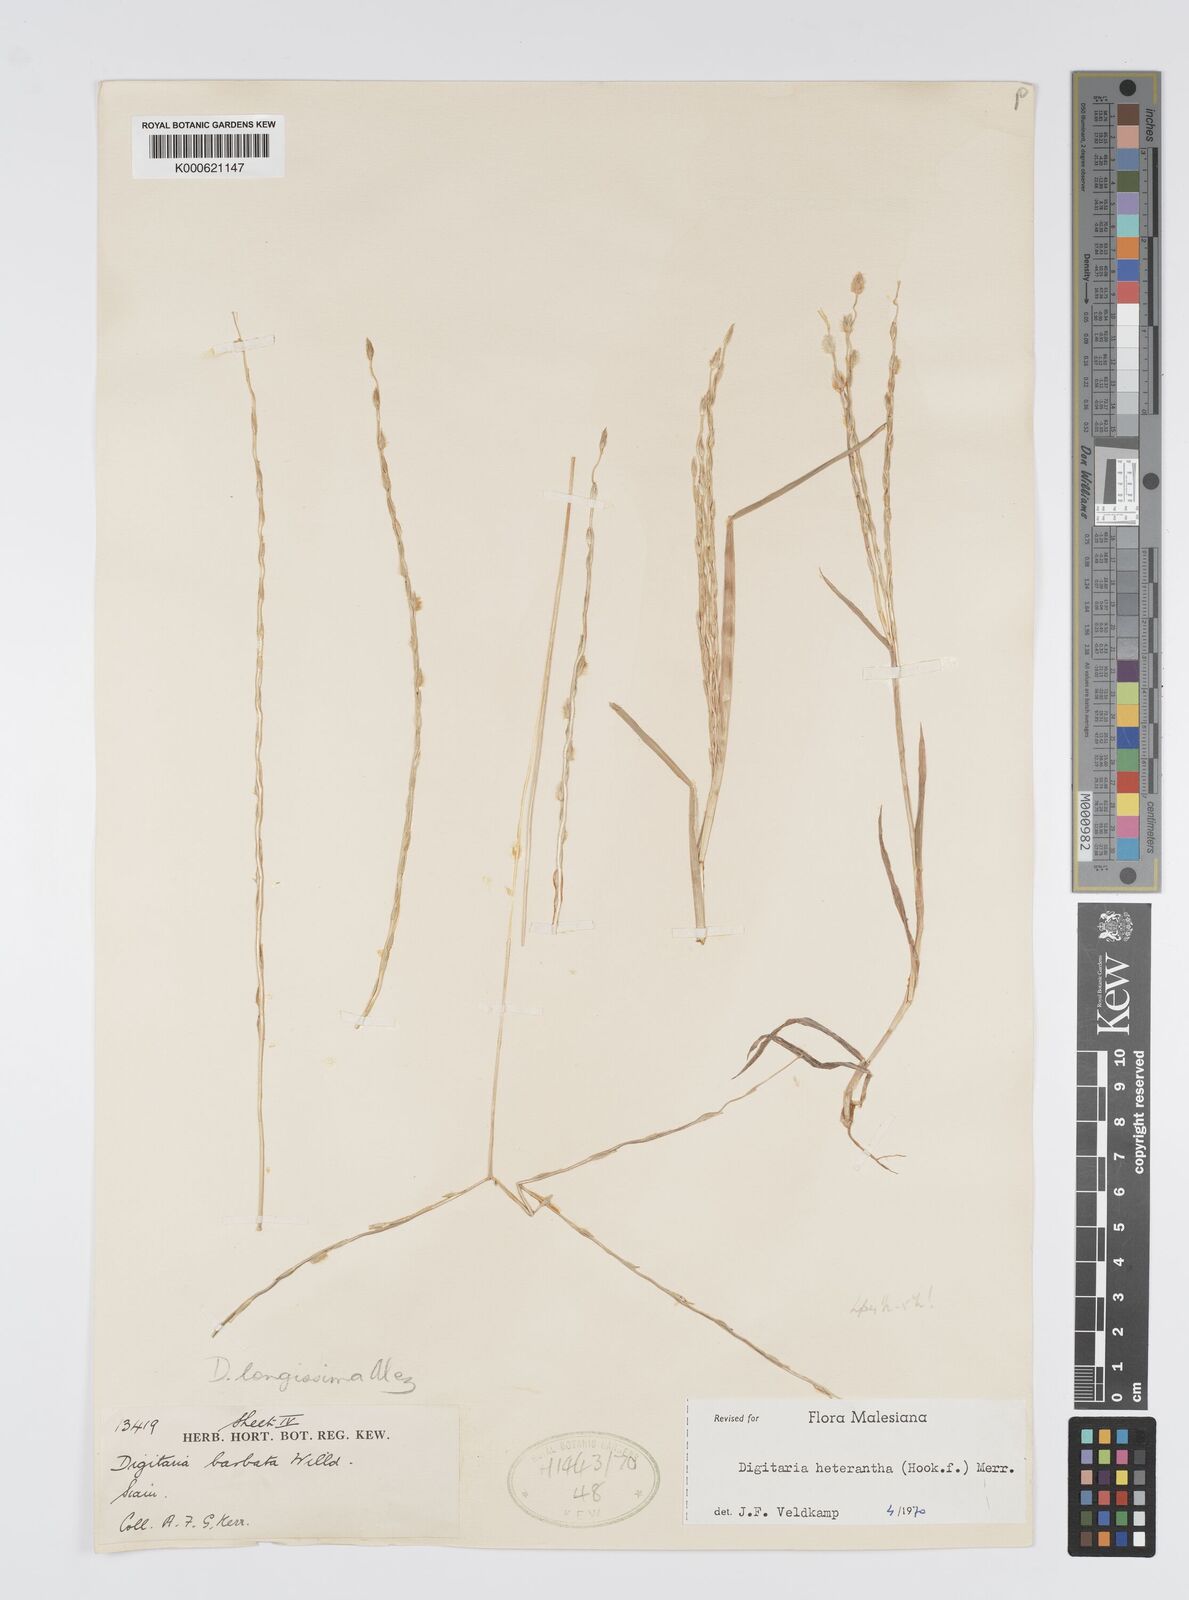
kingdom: Plantae
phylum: Tracheophyta
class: Liliopsida
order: Poales
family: Poaceae
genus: Digitaria
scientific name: Digitaria heterantha
